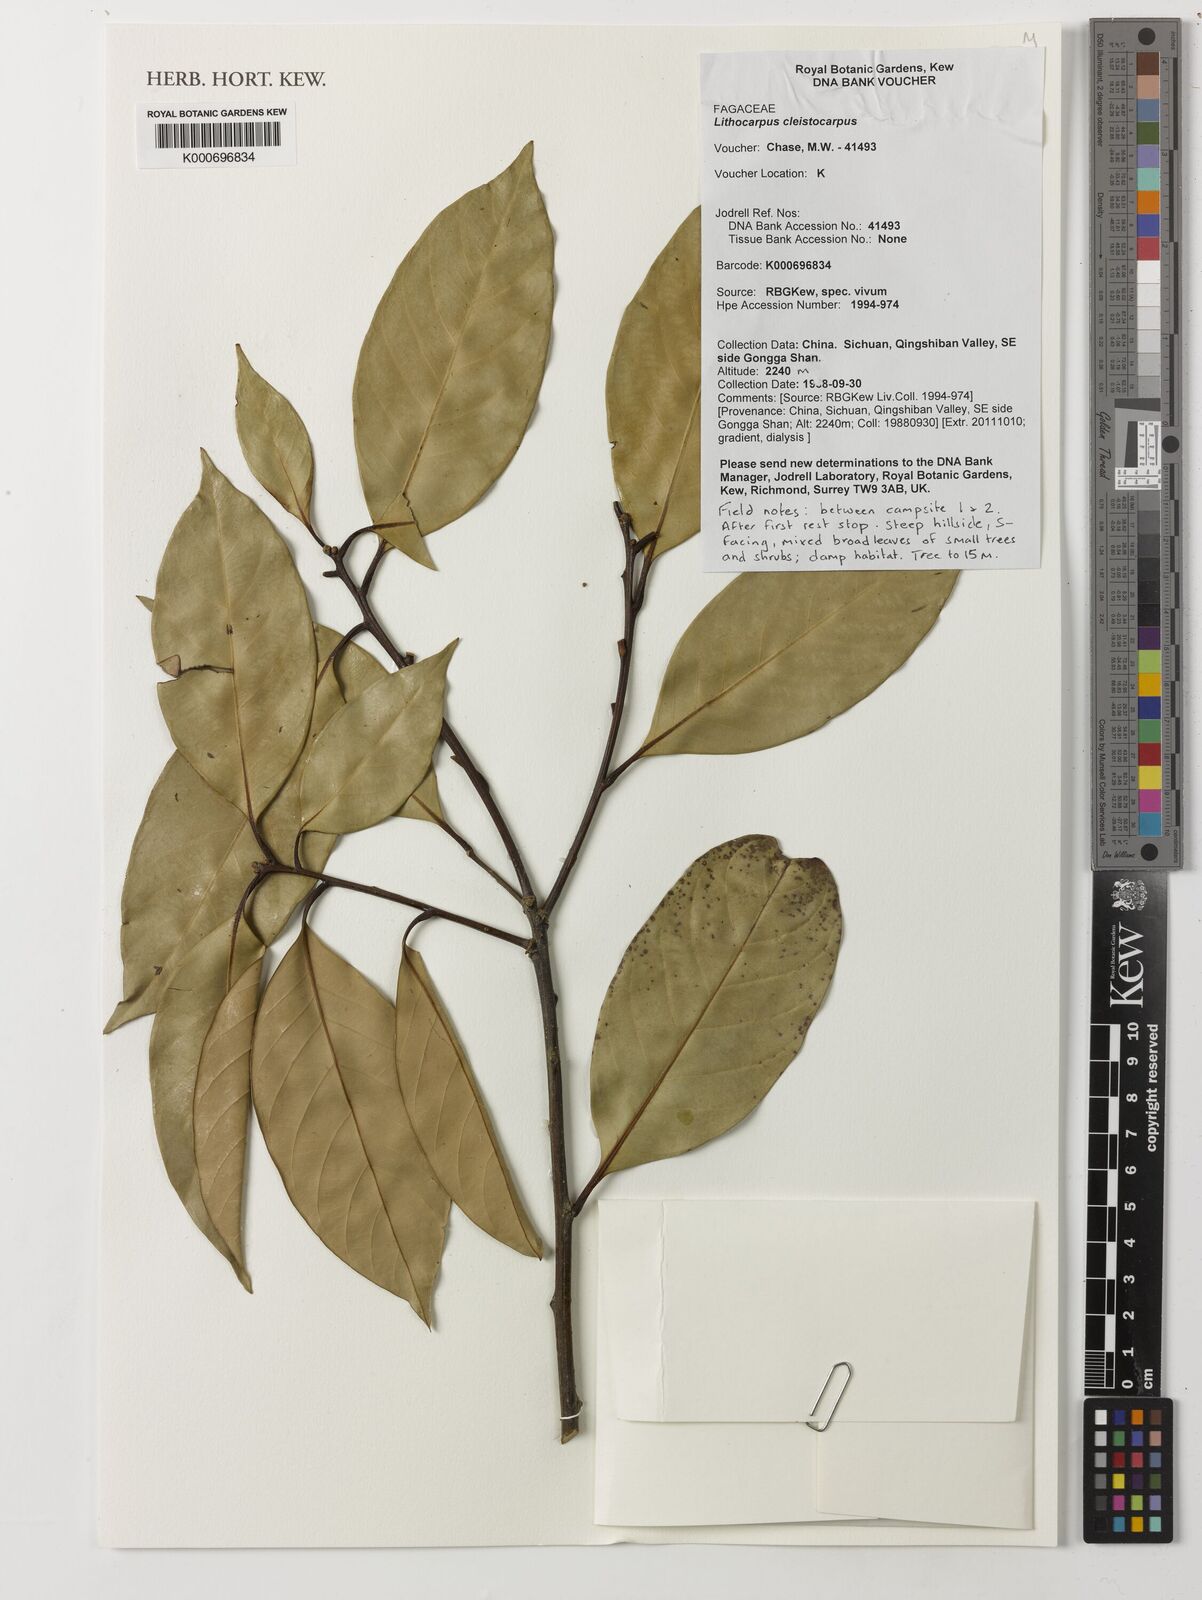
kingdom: Plantae
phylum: Tracheophyta
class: Magnoliopsida
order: Fagales
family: Fagaceae
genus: Lithocarpus
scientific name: Lithocarpus cleistocarpus
